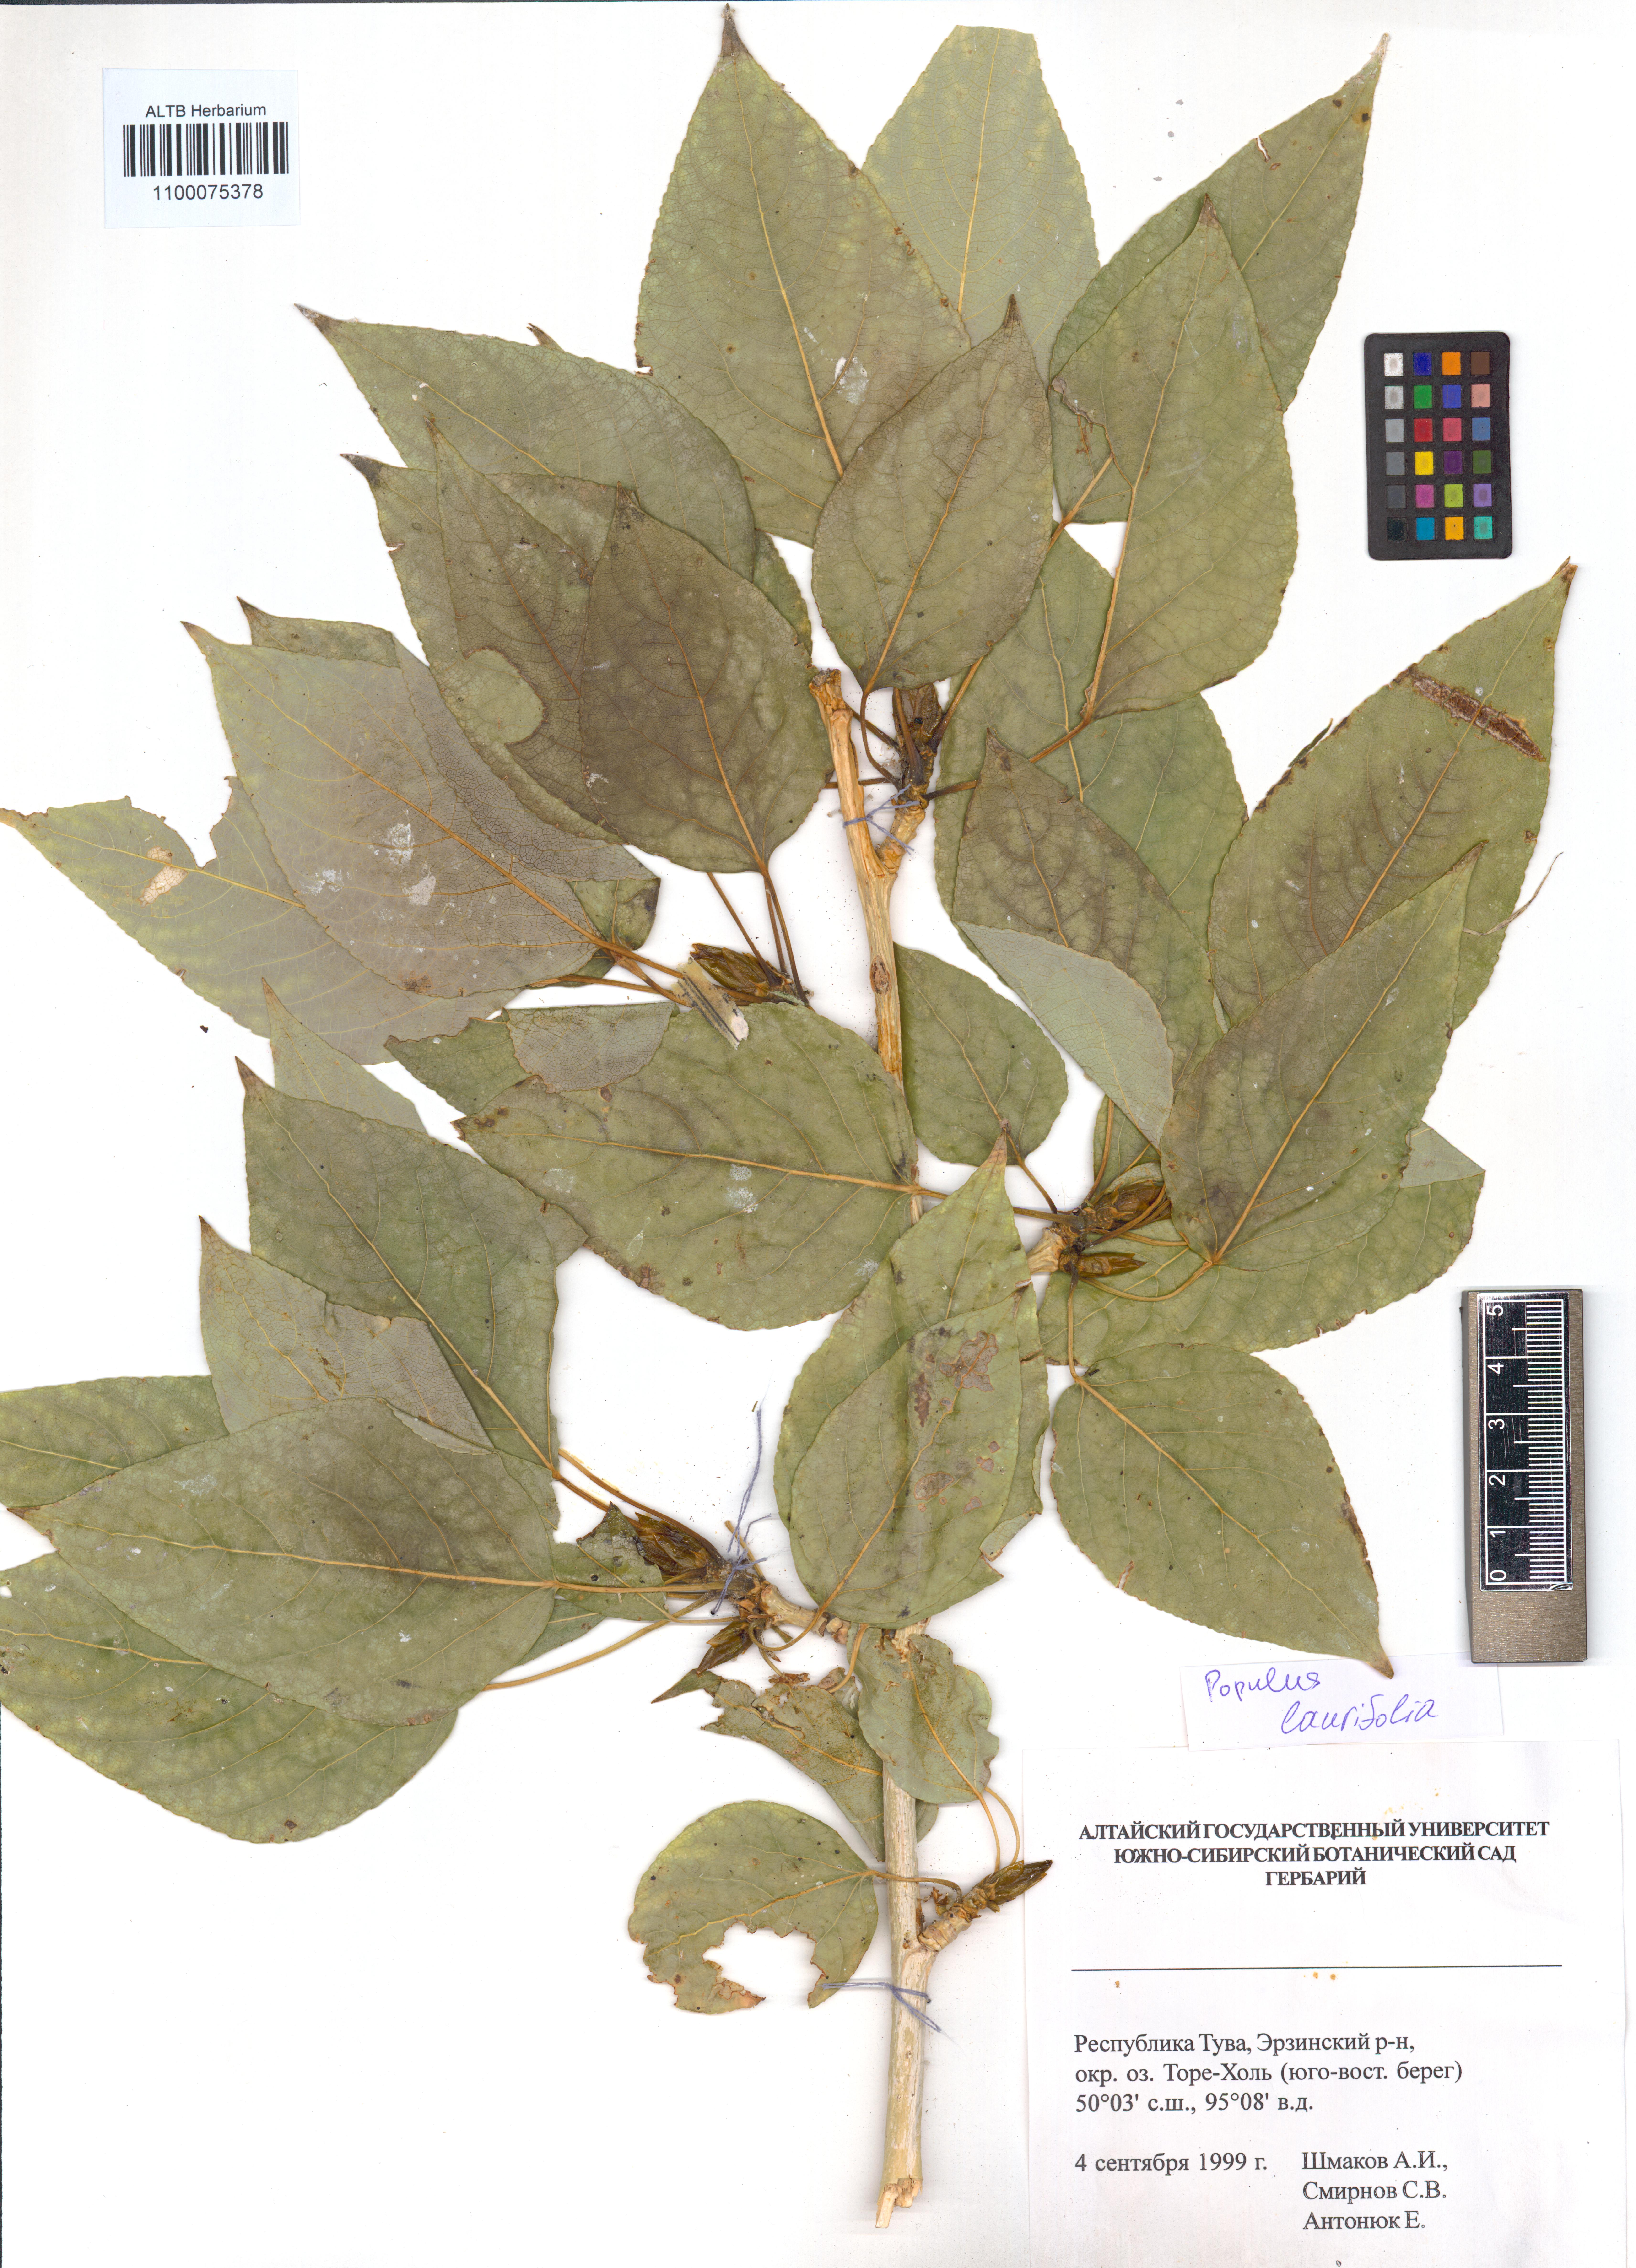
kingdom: Plantae
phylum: Tracheophyta
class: Magnoliopsida
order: Malpighiales
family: Salicaceae
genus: Populus
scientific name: Populus laurifolia
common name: Laurel-leaf poplar
